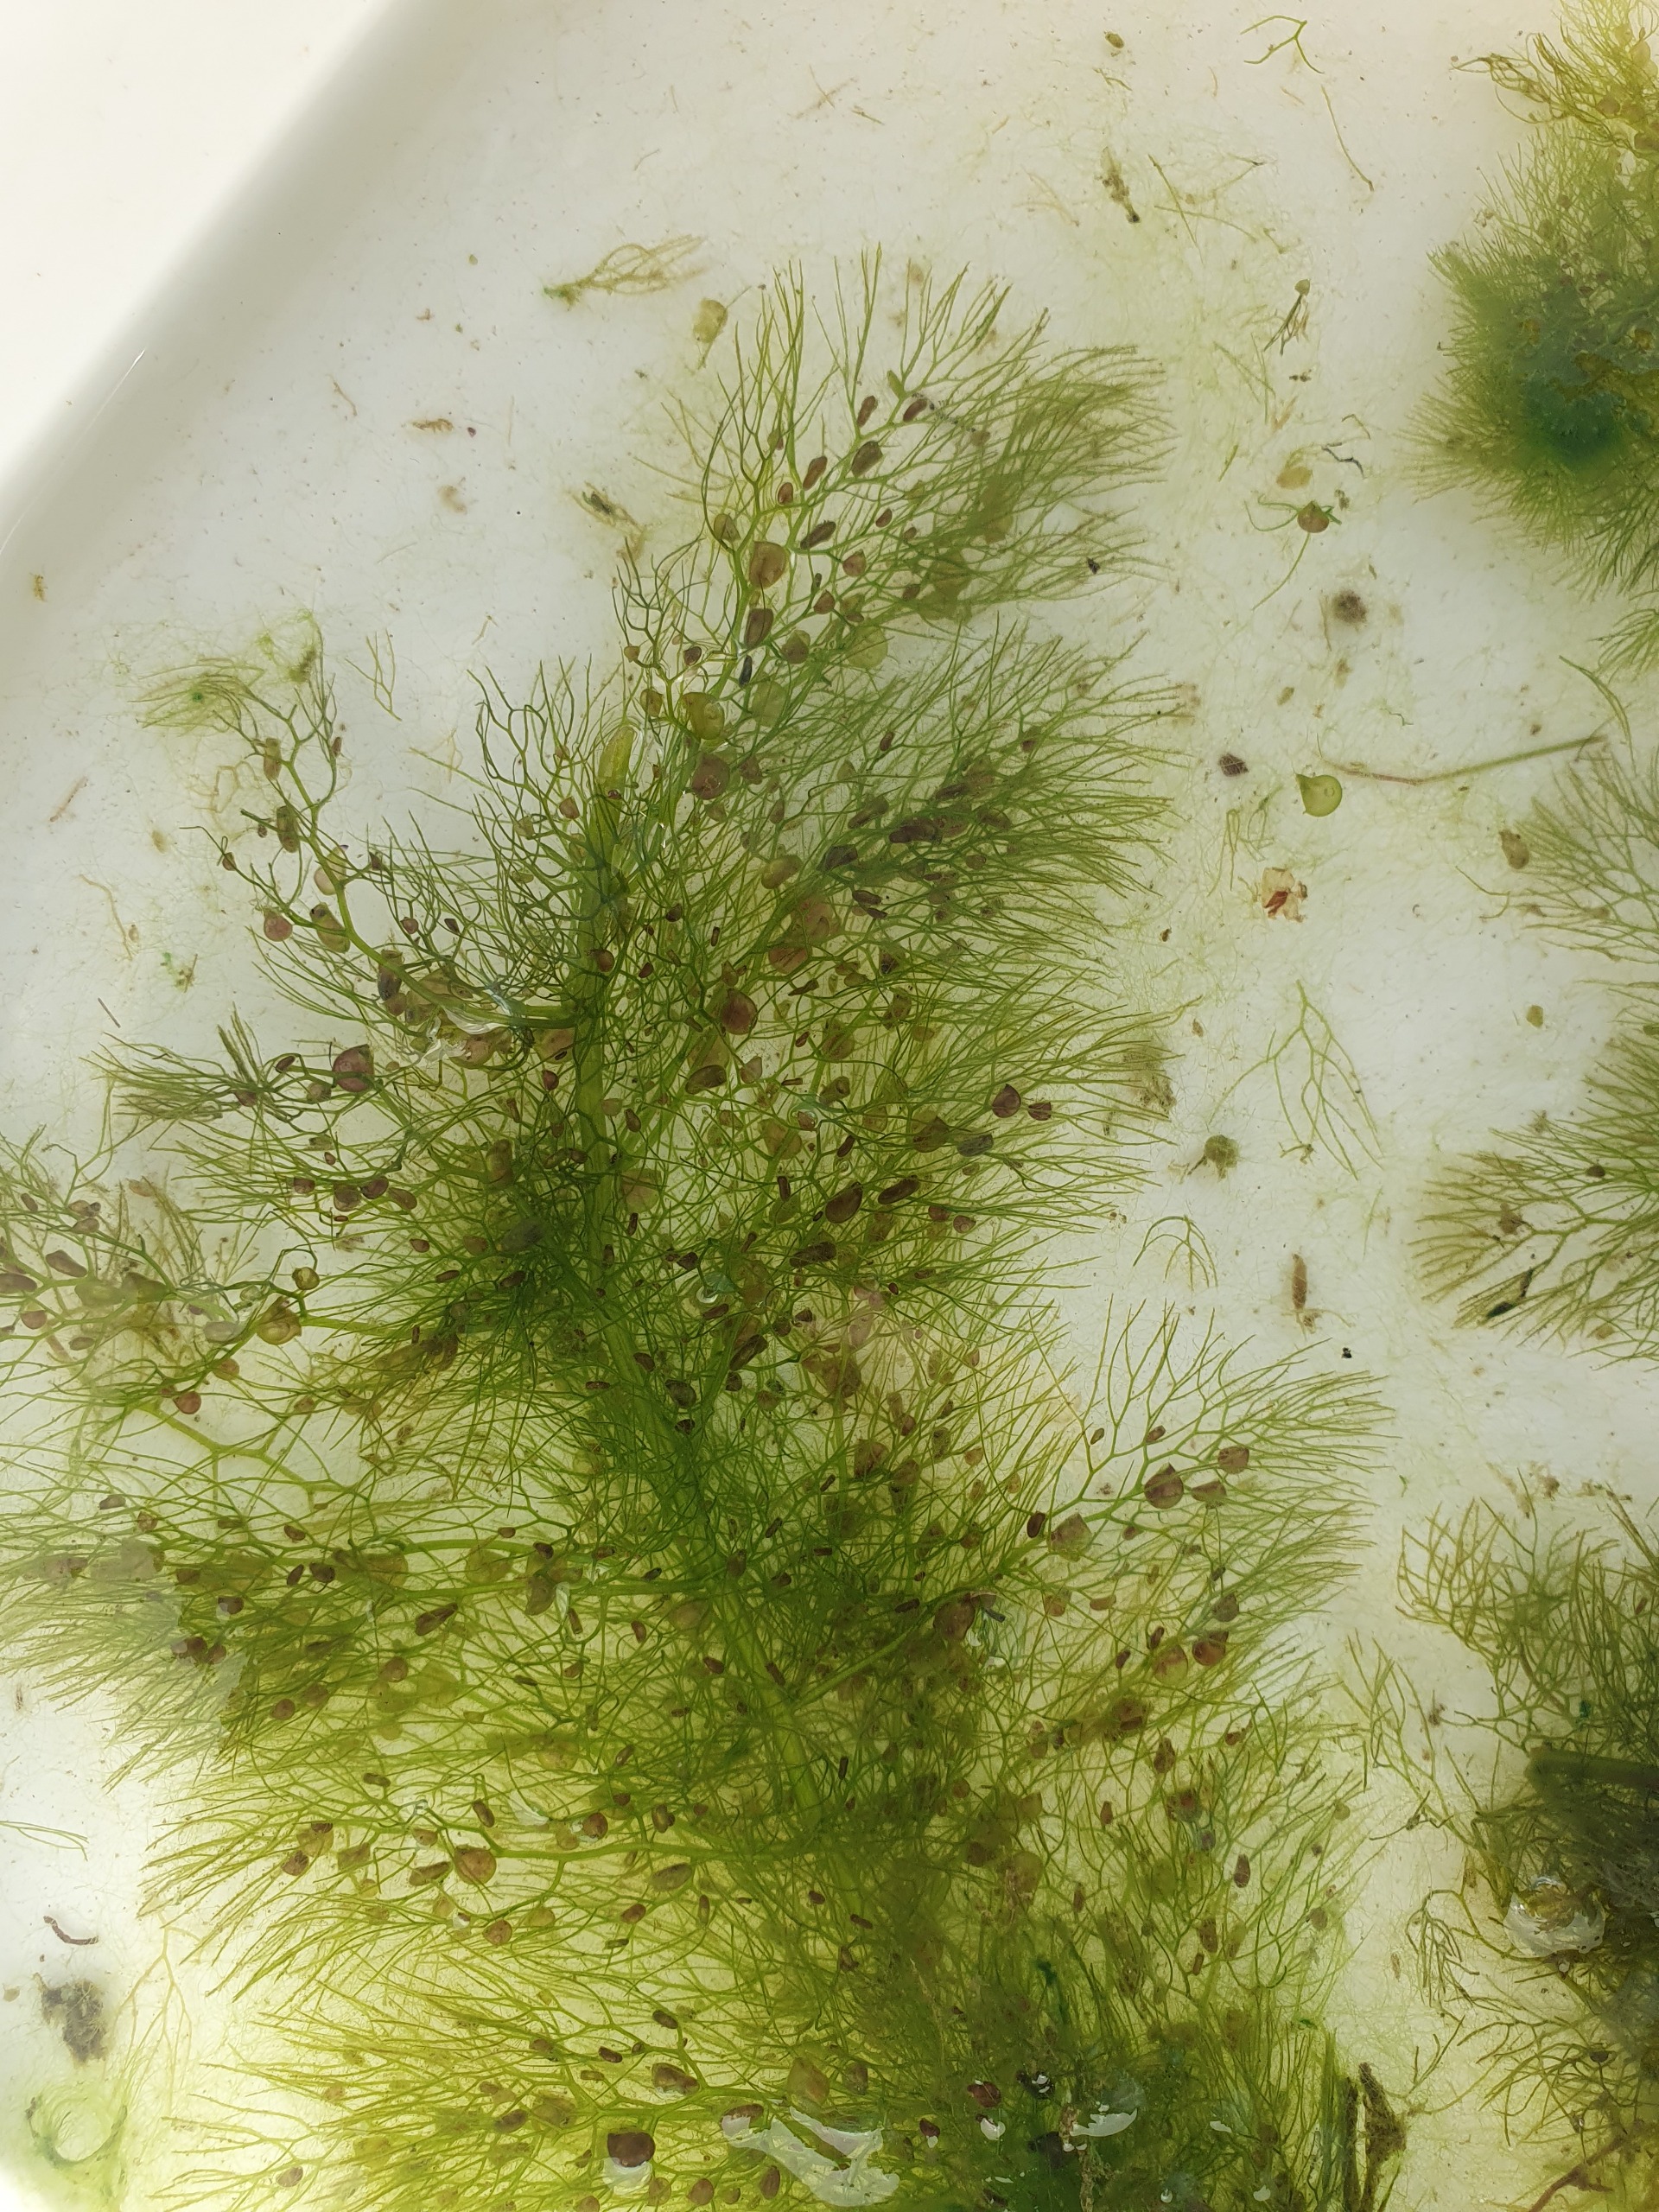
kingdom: Plantae
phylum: Tracheophyta
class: Magnoliopsida
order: Lamiales
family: Lentibulariaceae
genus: Utricularia
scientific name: Utricularia vulgaris
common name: Almindelig blærerod
